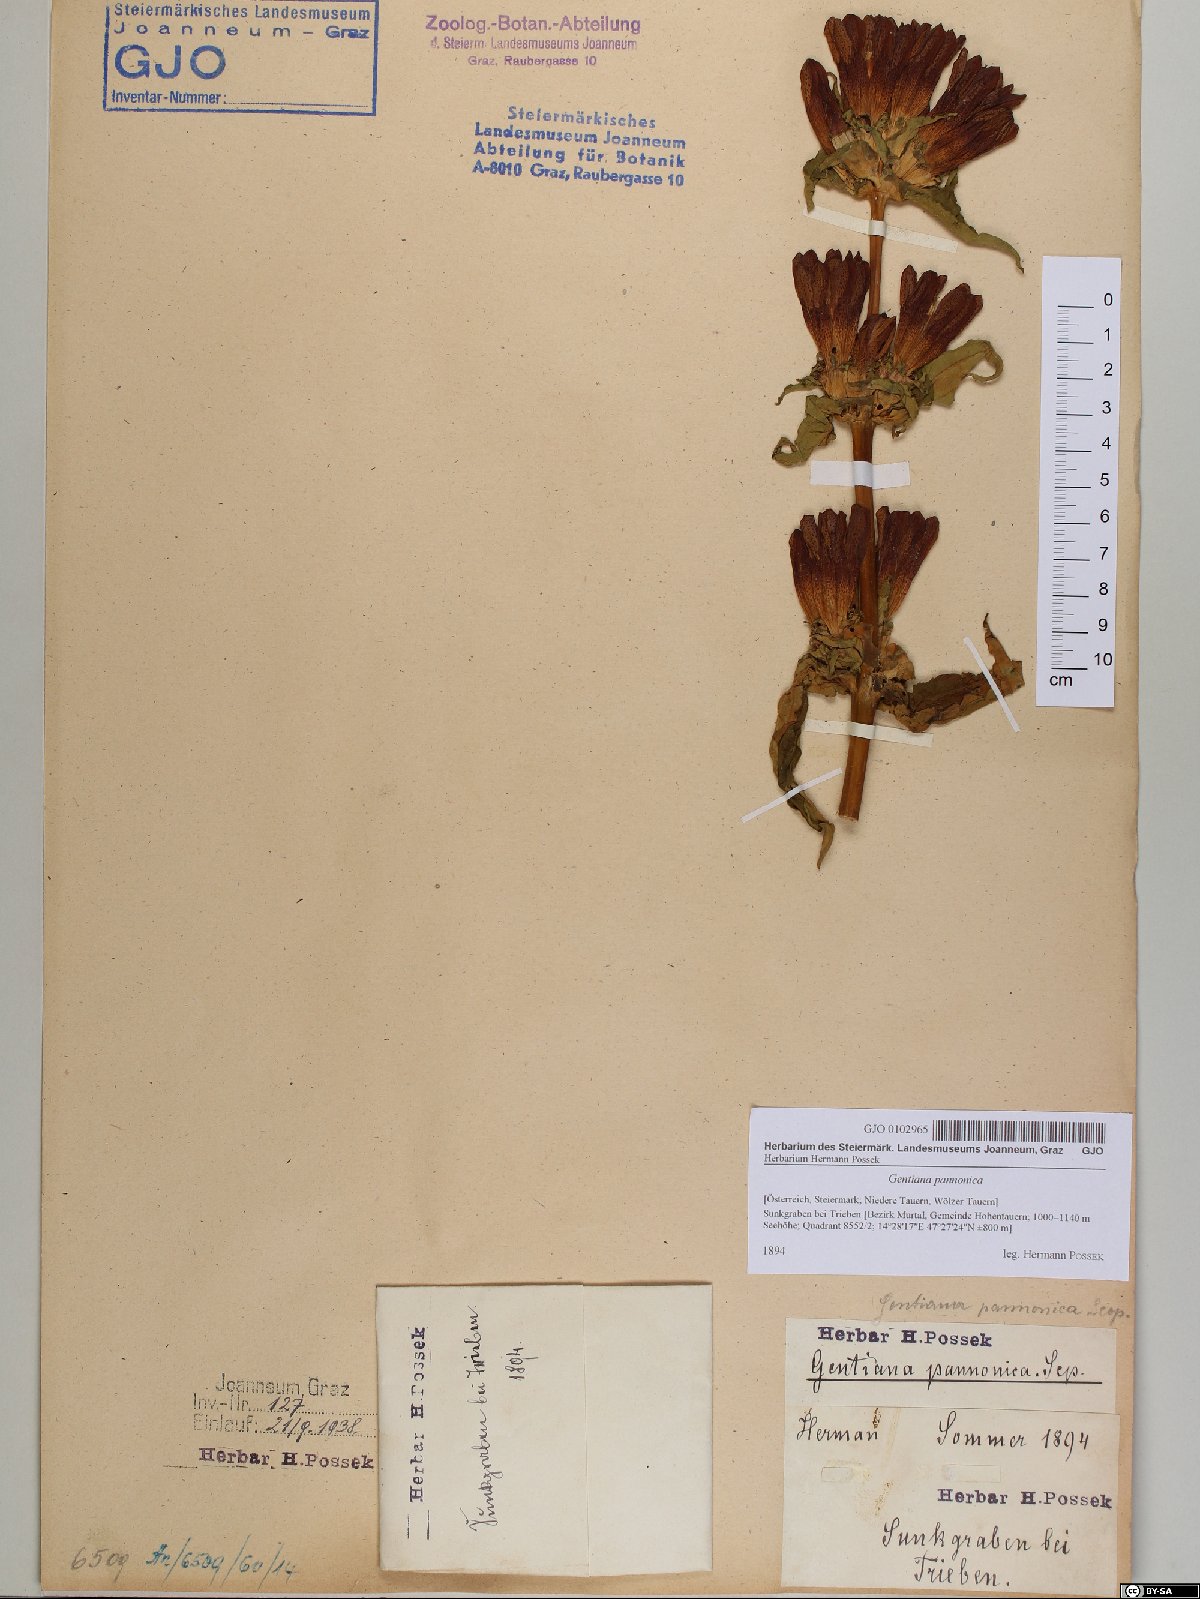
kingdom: Plantae
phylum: Tracheophyta
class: Magnoliopsida
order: Gentianales
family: Gentianaceae
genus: Gentiana
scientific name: Gentiana pannonica
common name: Hungarian gentian
